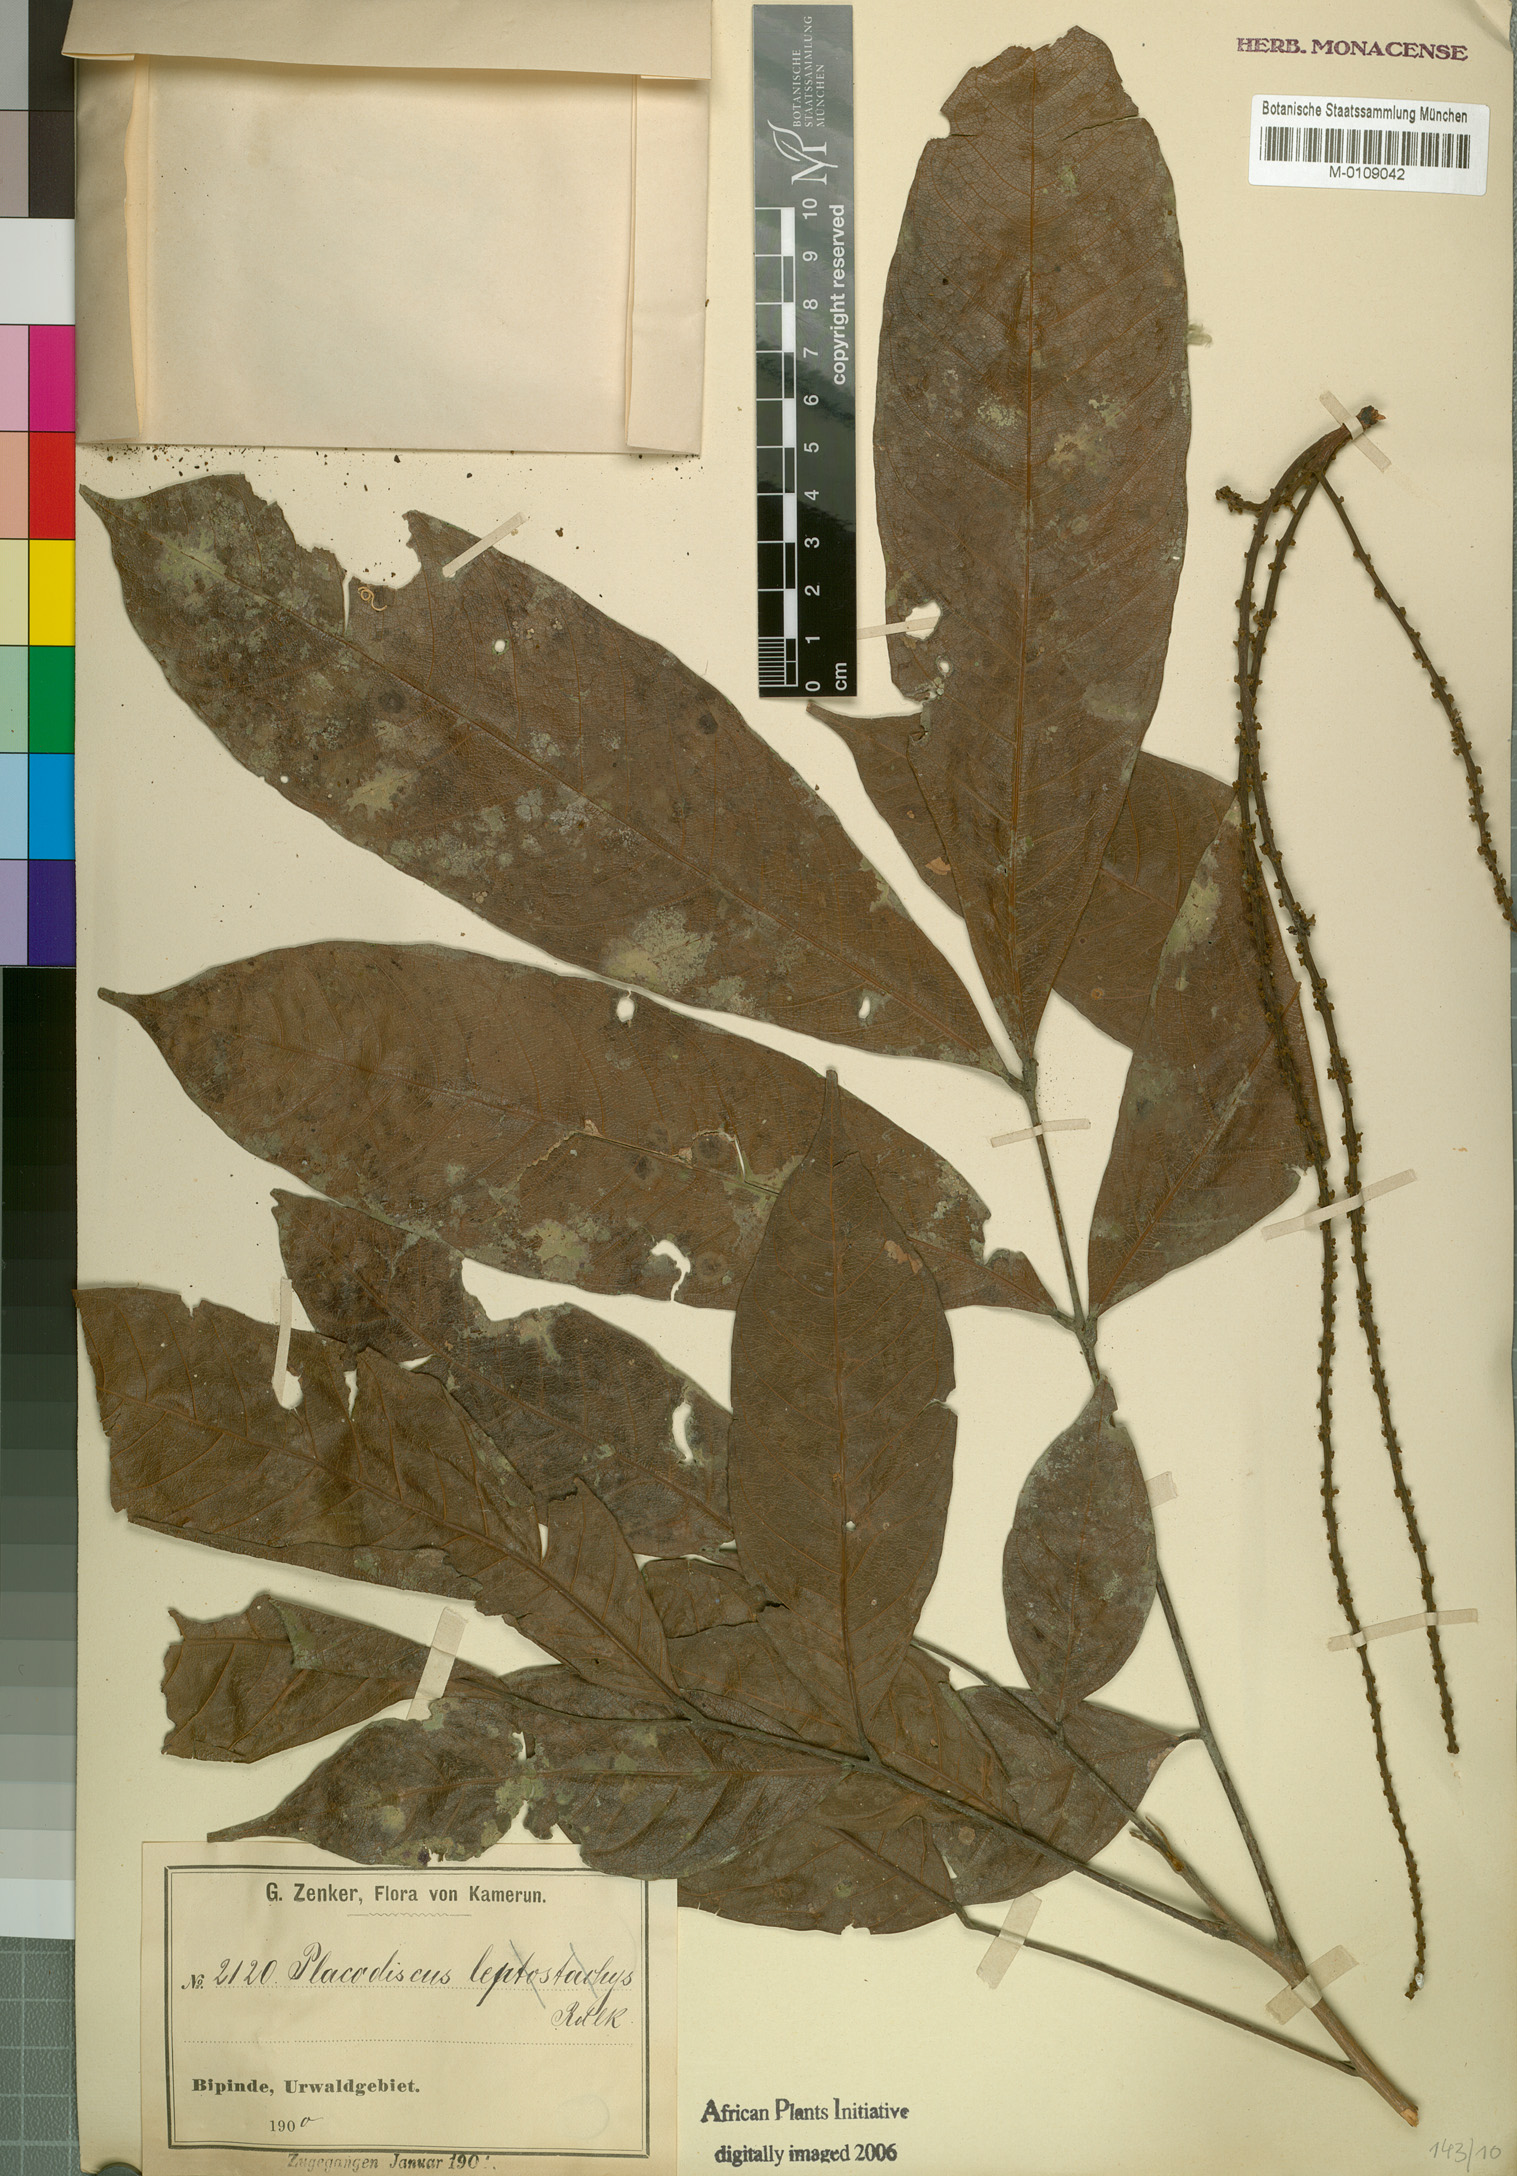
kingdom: Plantae
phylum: Tracheophyta
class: Magnoliopsida
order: Sapindales
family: Sapindaceae
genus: Placodiscus
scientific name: Placodiscus angustifolius
